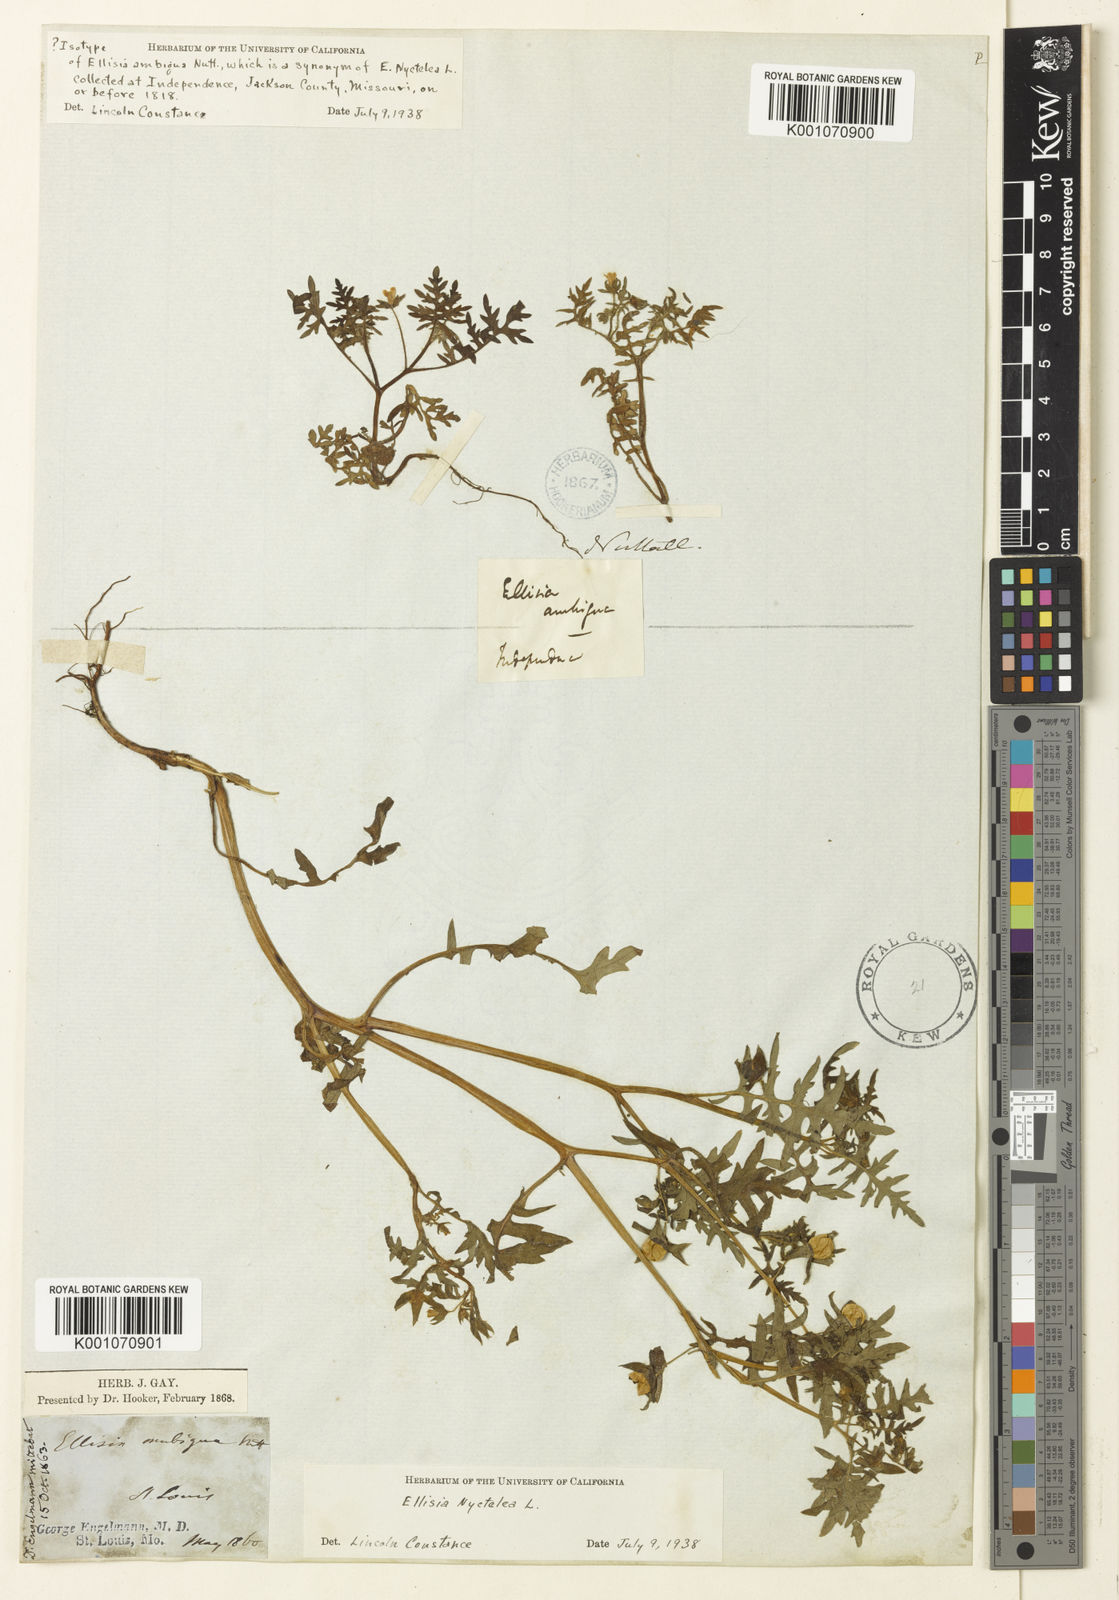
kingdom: Plantae
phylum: Tracheophyta
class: Magnoliopsida
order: Boraginales
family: Hydrophyllaceae
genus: Ellisia
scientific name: Ellisia nyctelea
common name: Aunt lucy
